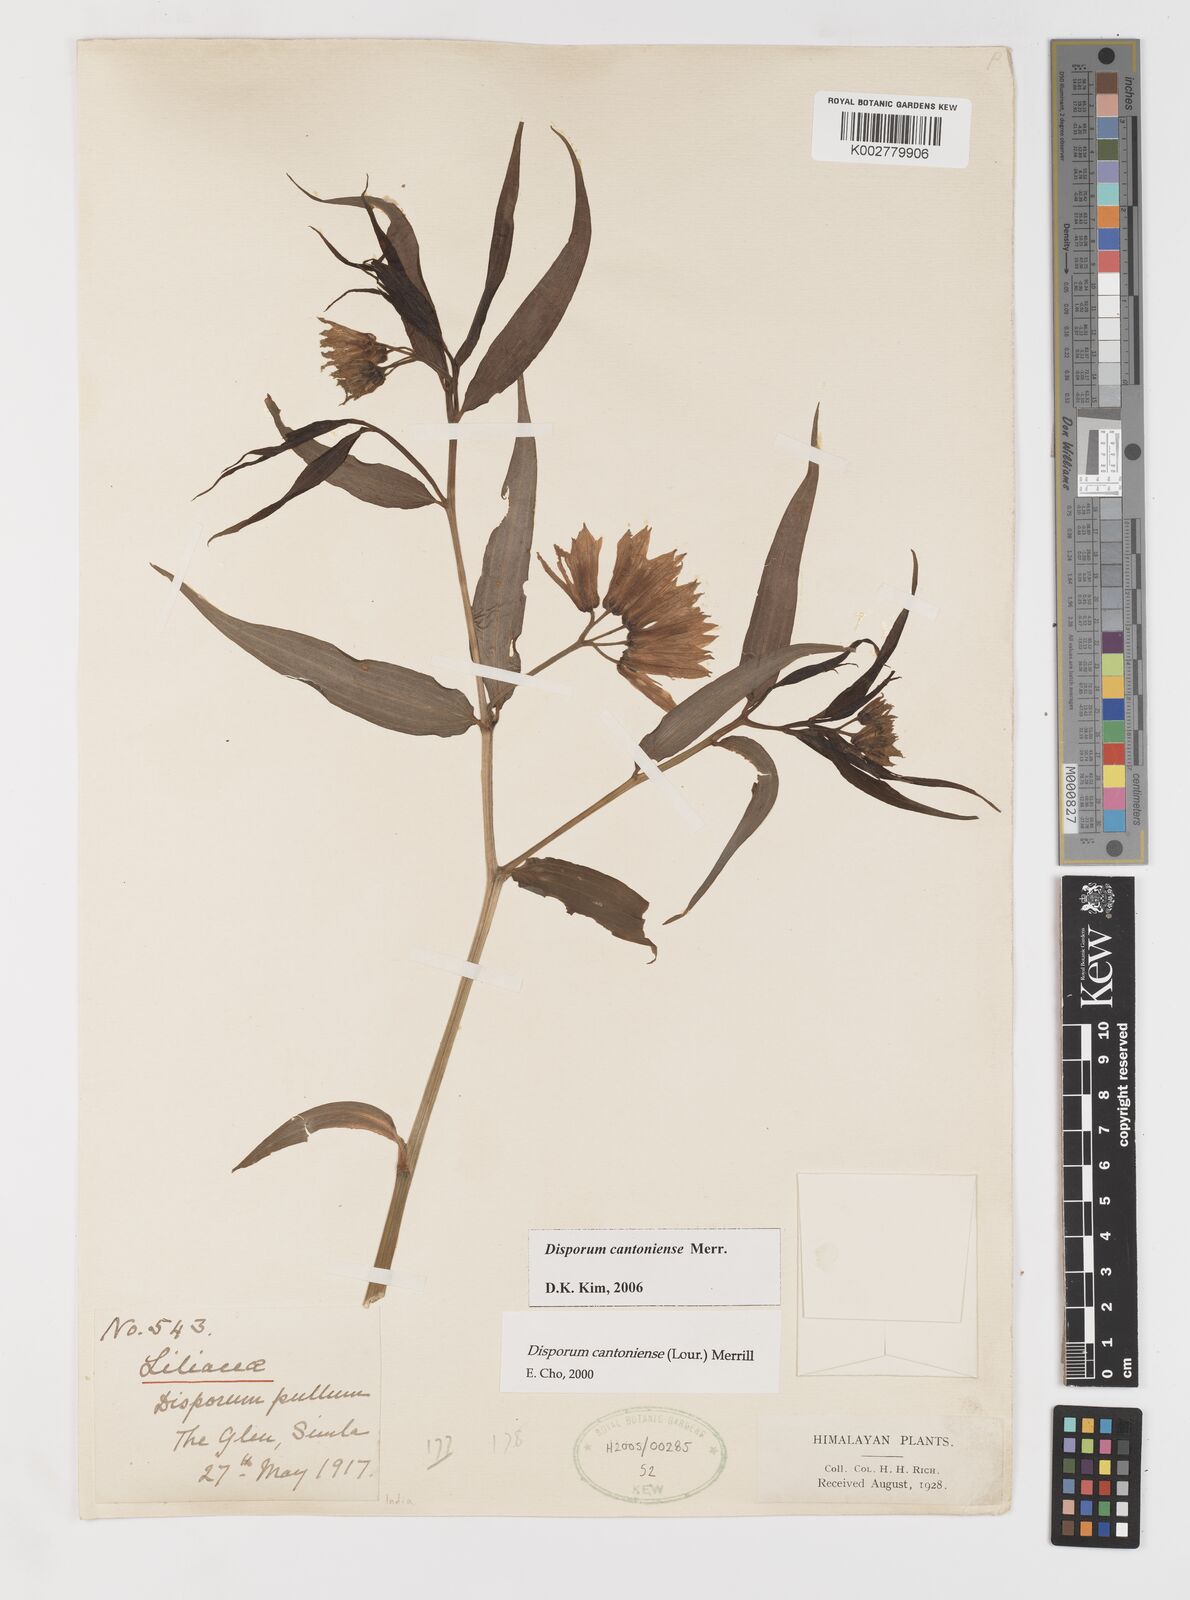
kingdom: Plantae
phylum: Tracheophyta
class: Liliopsida
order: Liliales
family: Colchicaceae
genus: Disporum
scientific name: Disporum cantoniense
